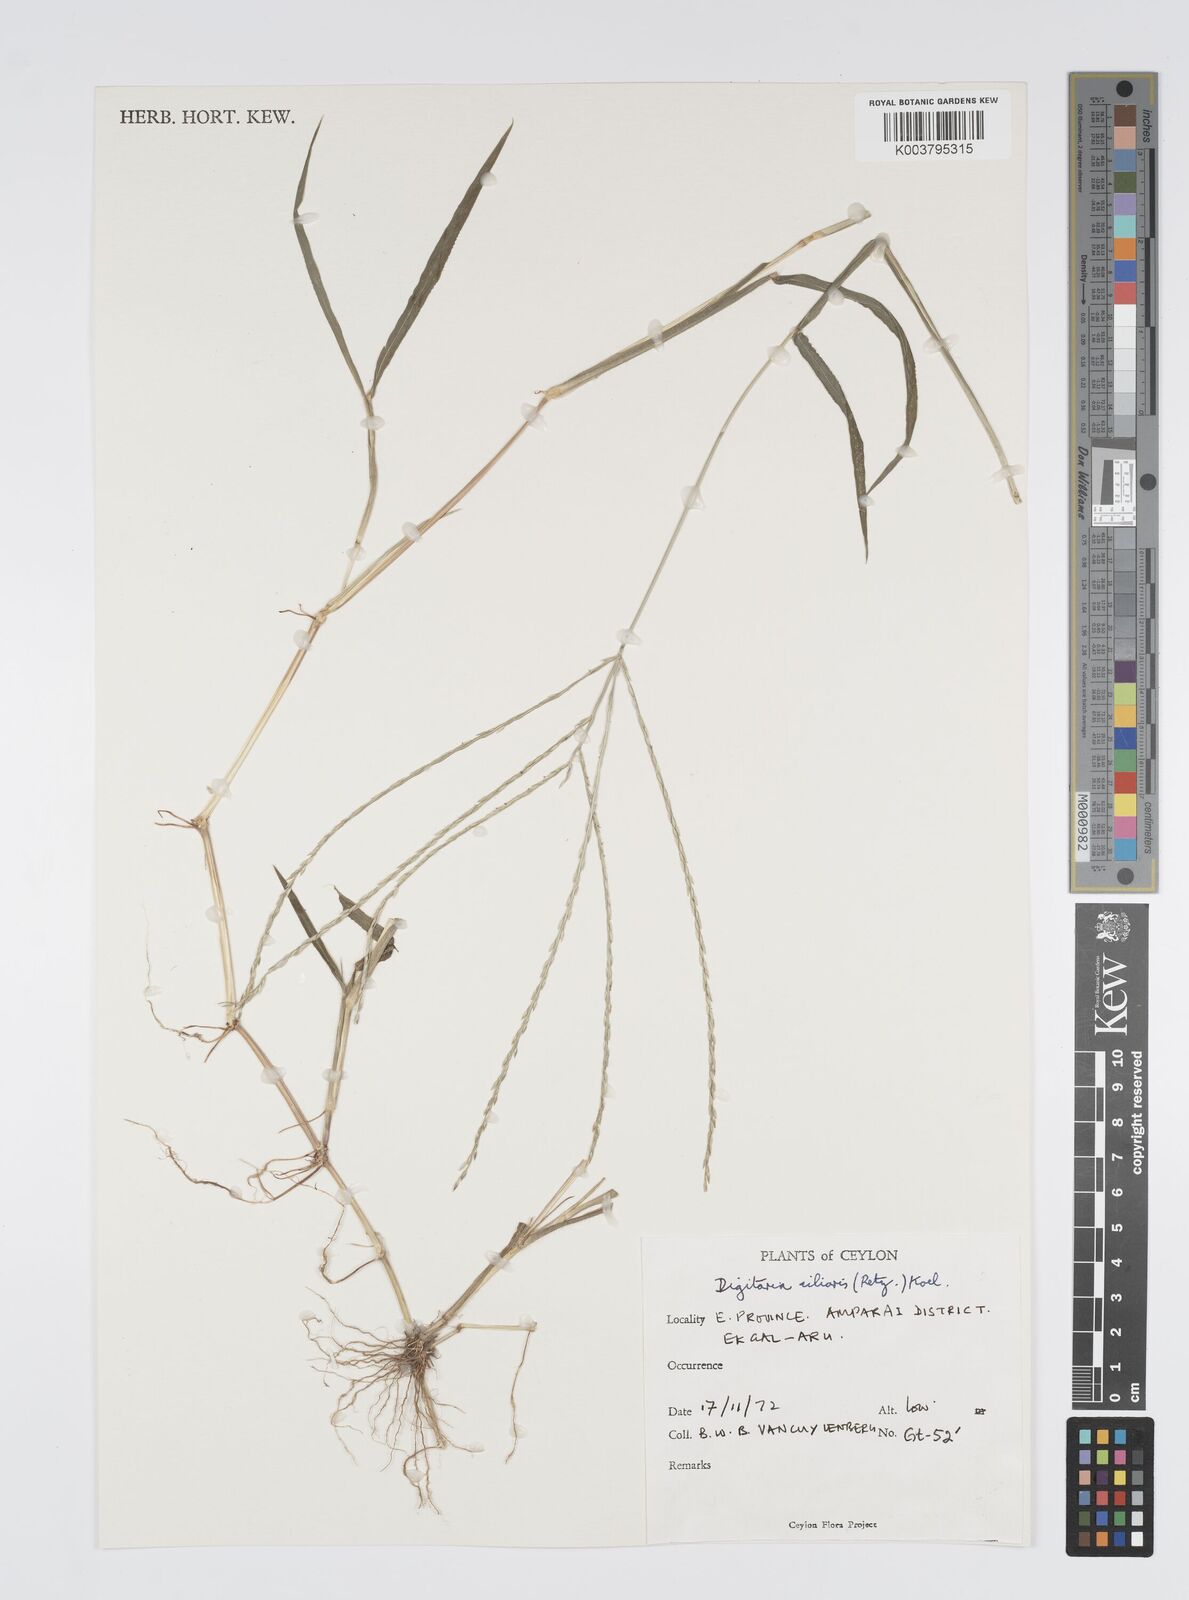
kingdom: Plantae
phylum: Tracheophyta
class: Liliopsida
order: Poales
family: Poaceae
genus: Digitaria
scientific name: Digitaria ciliaris
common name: Tropical finger-grass
